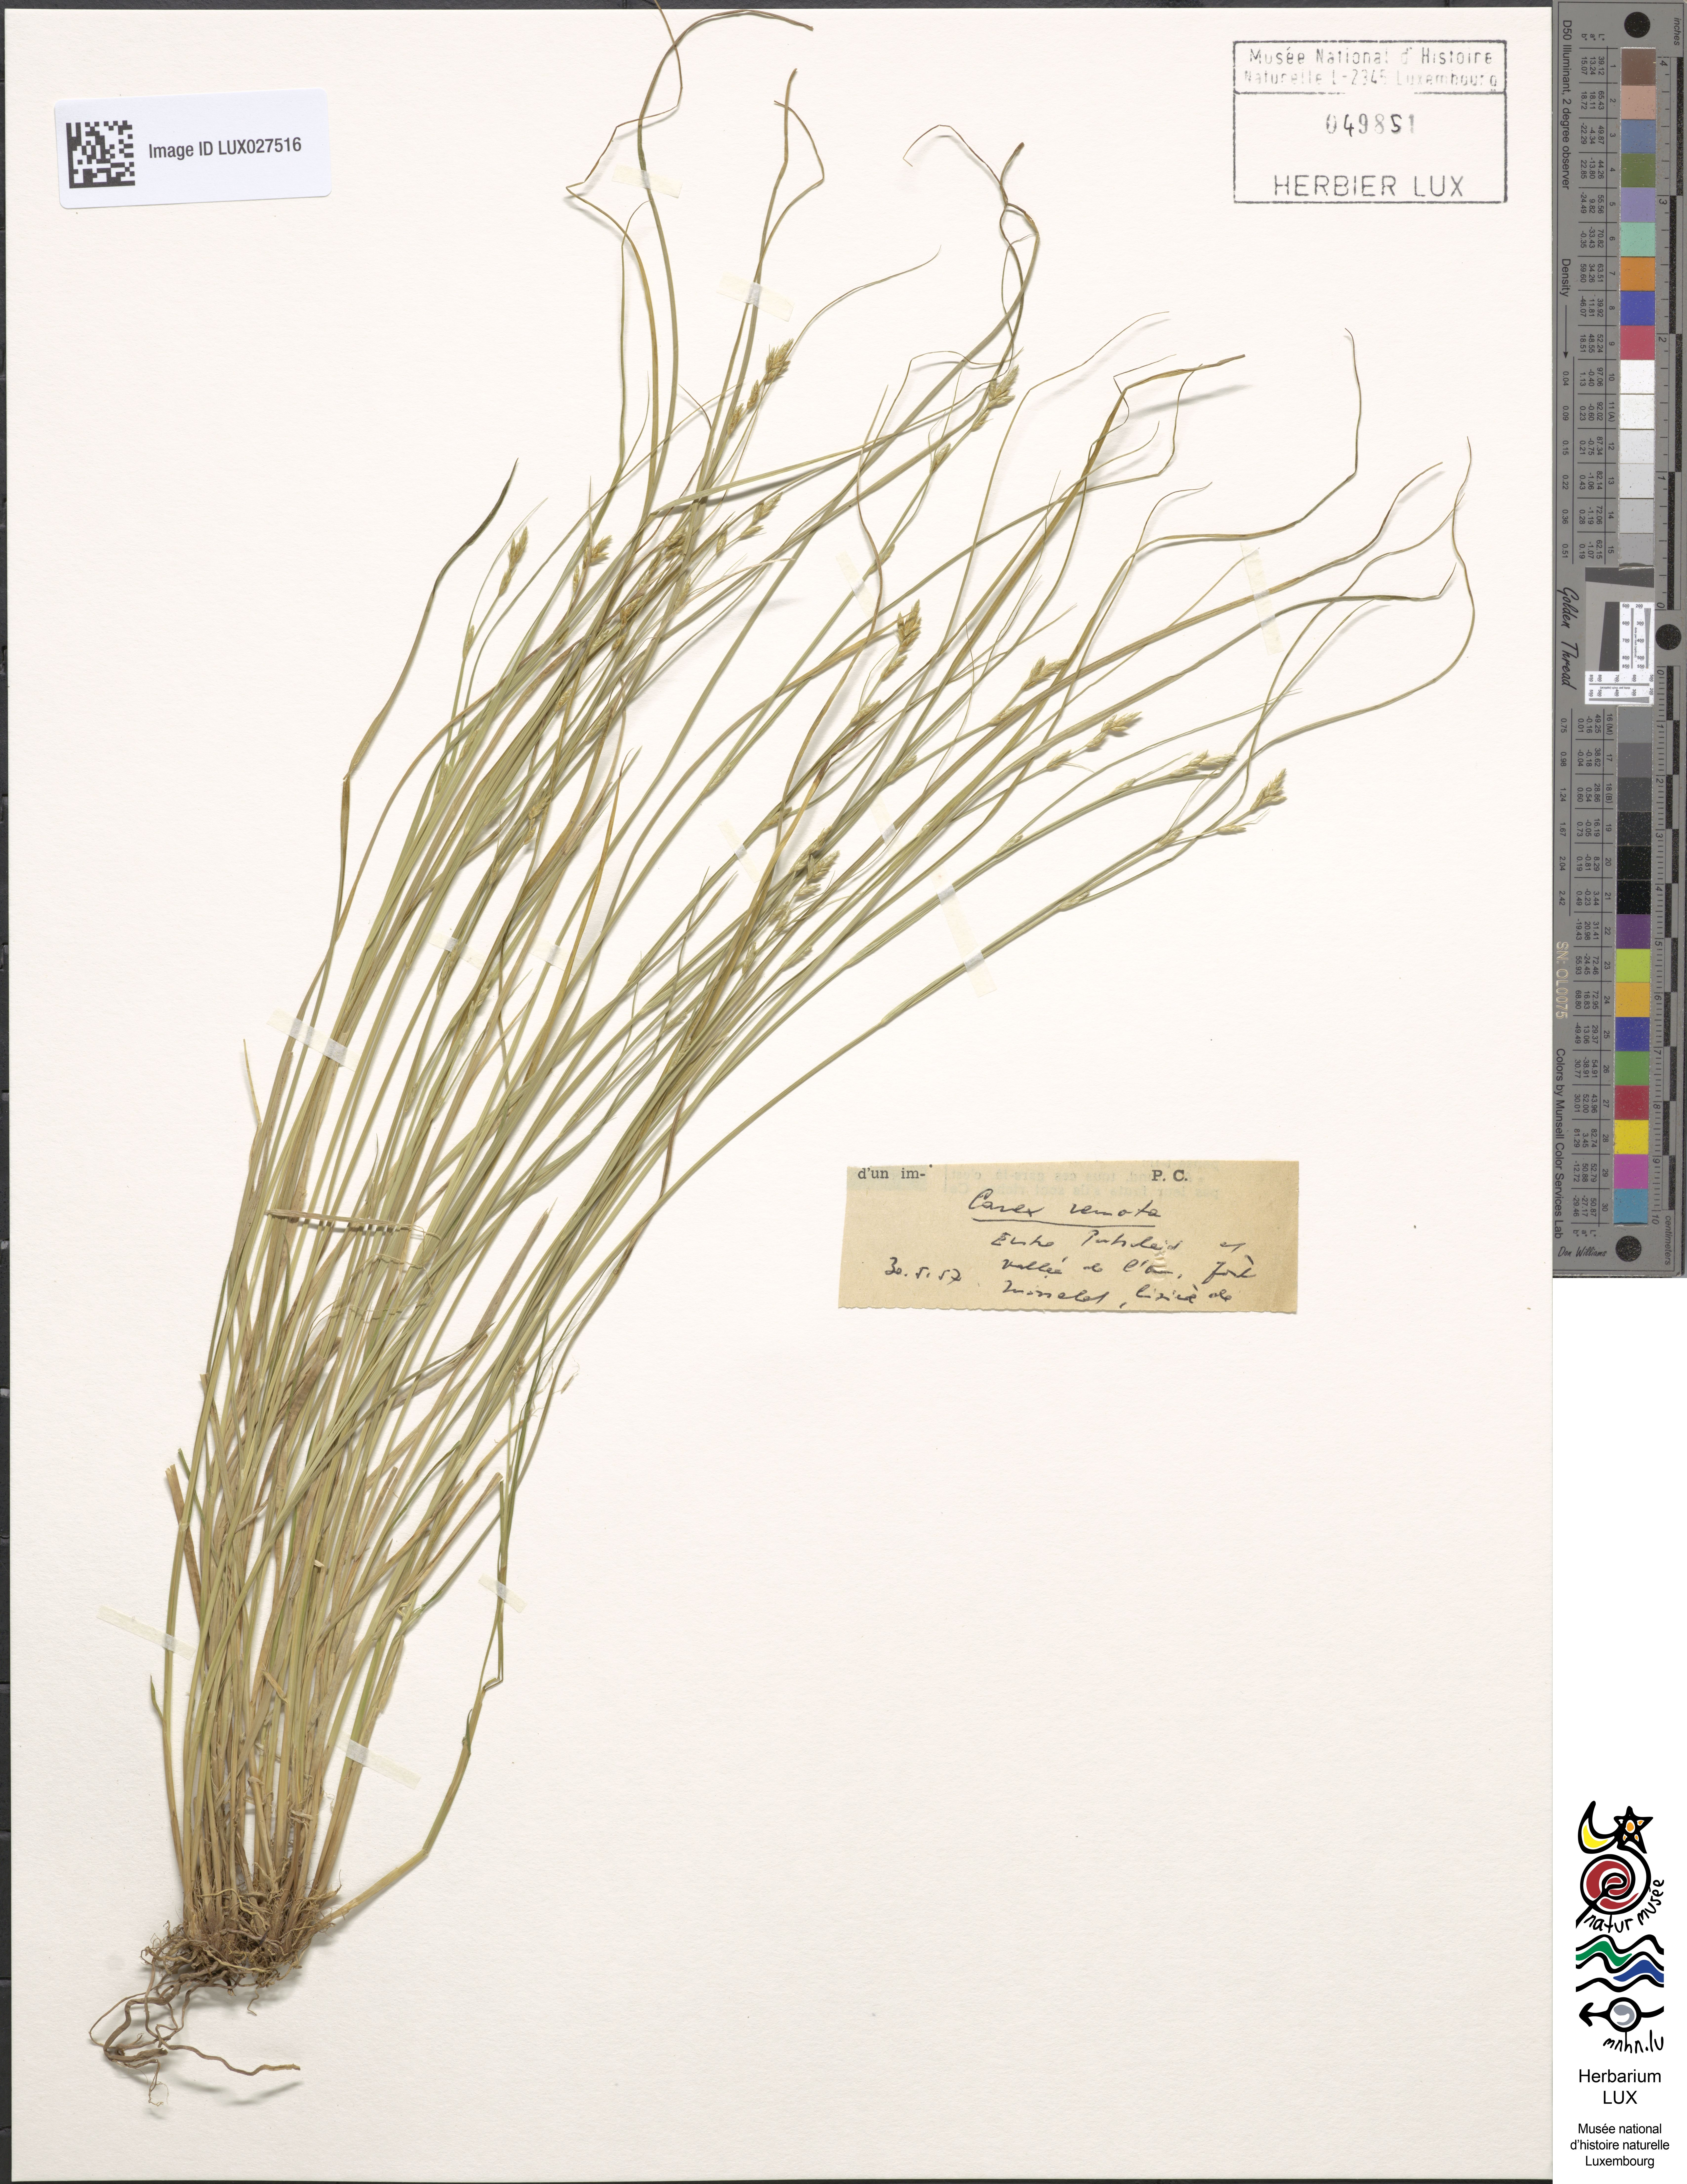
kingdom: Plantae
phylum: Tracheophyta
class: Liliopsida
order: Poales
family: Cyperaceae
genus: Carex
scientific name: Carex remota
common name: Remote sedge
